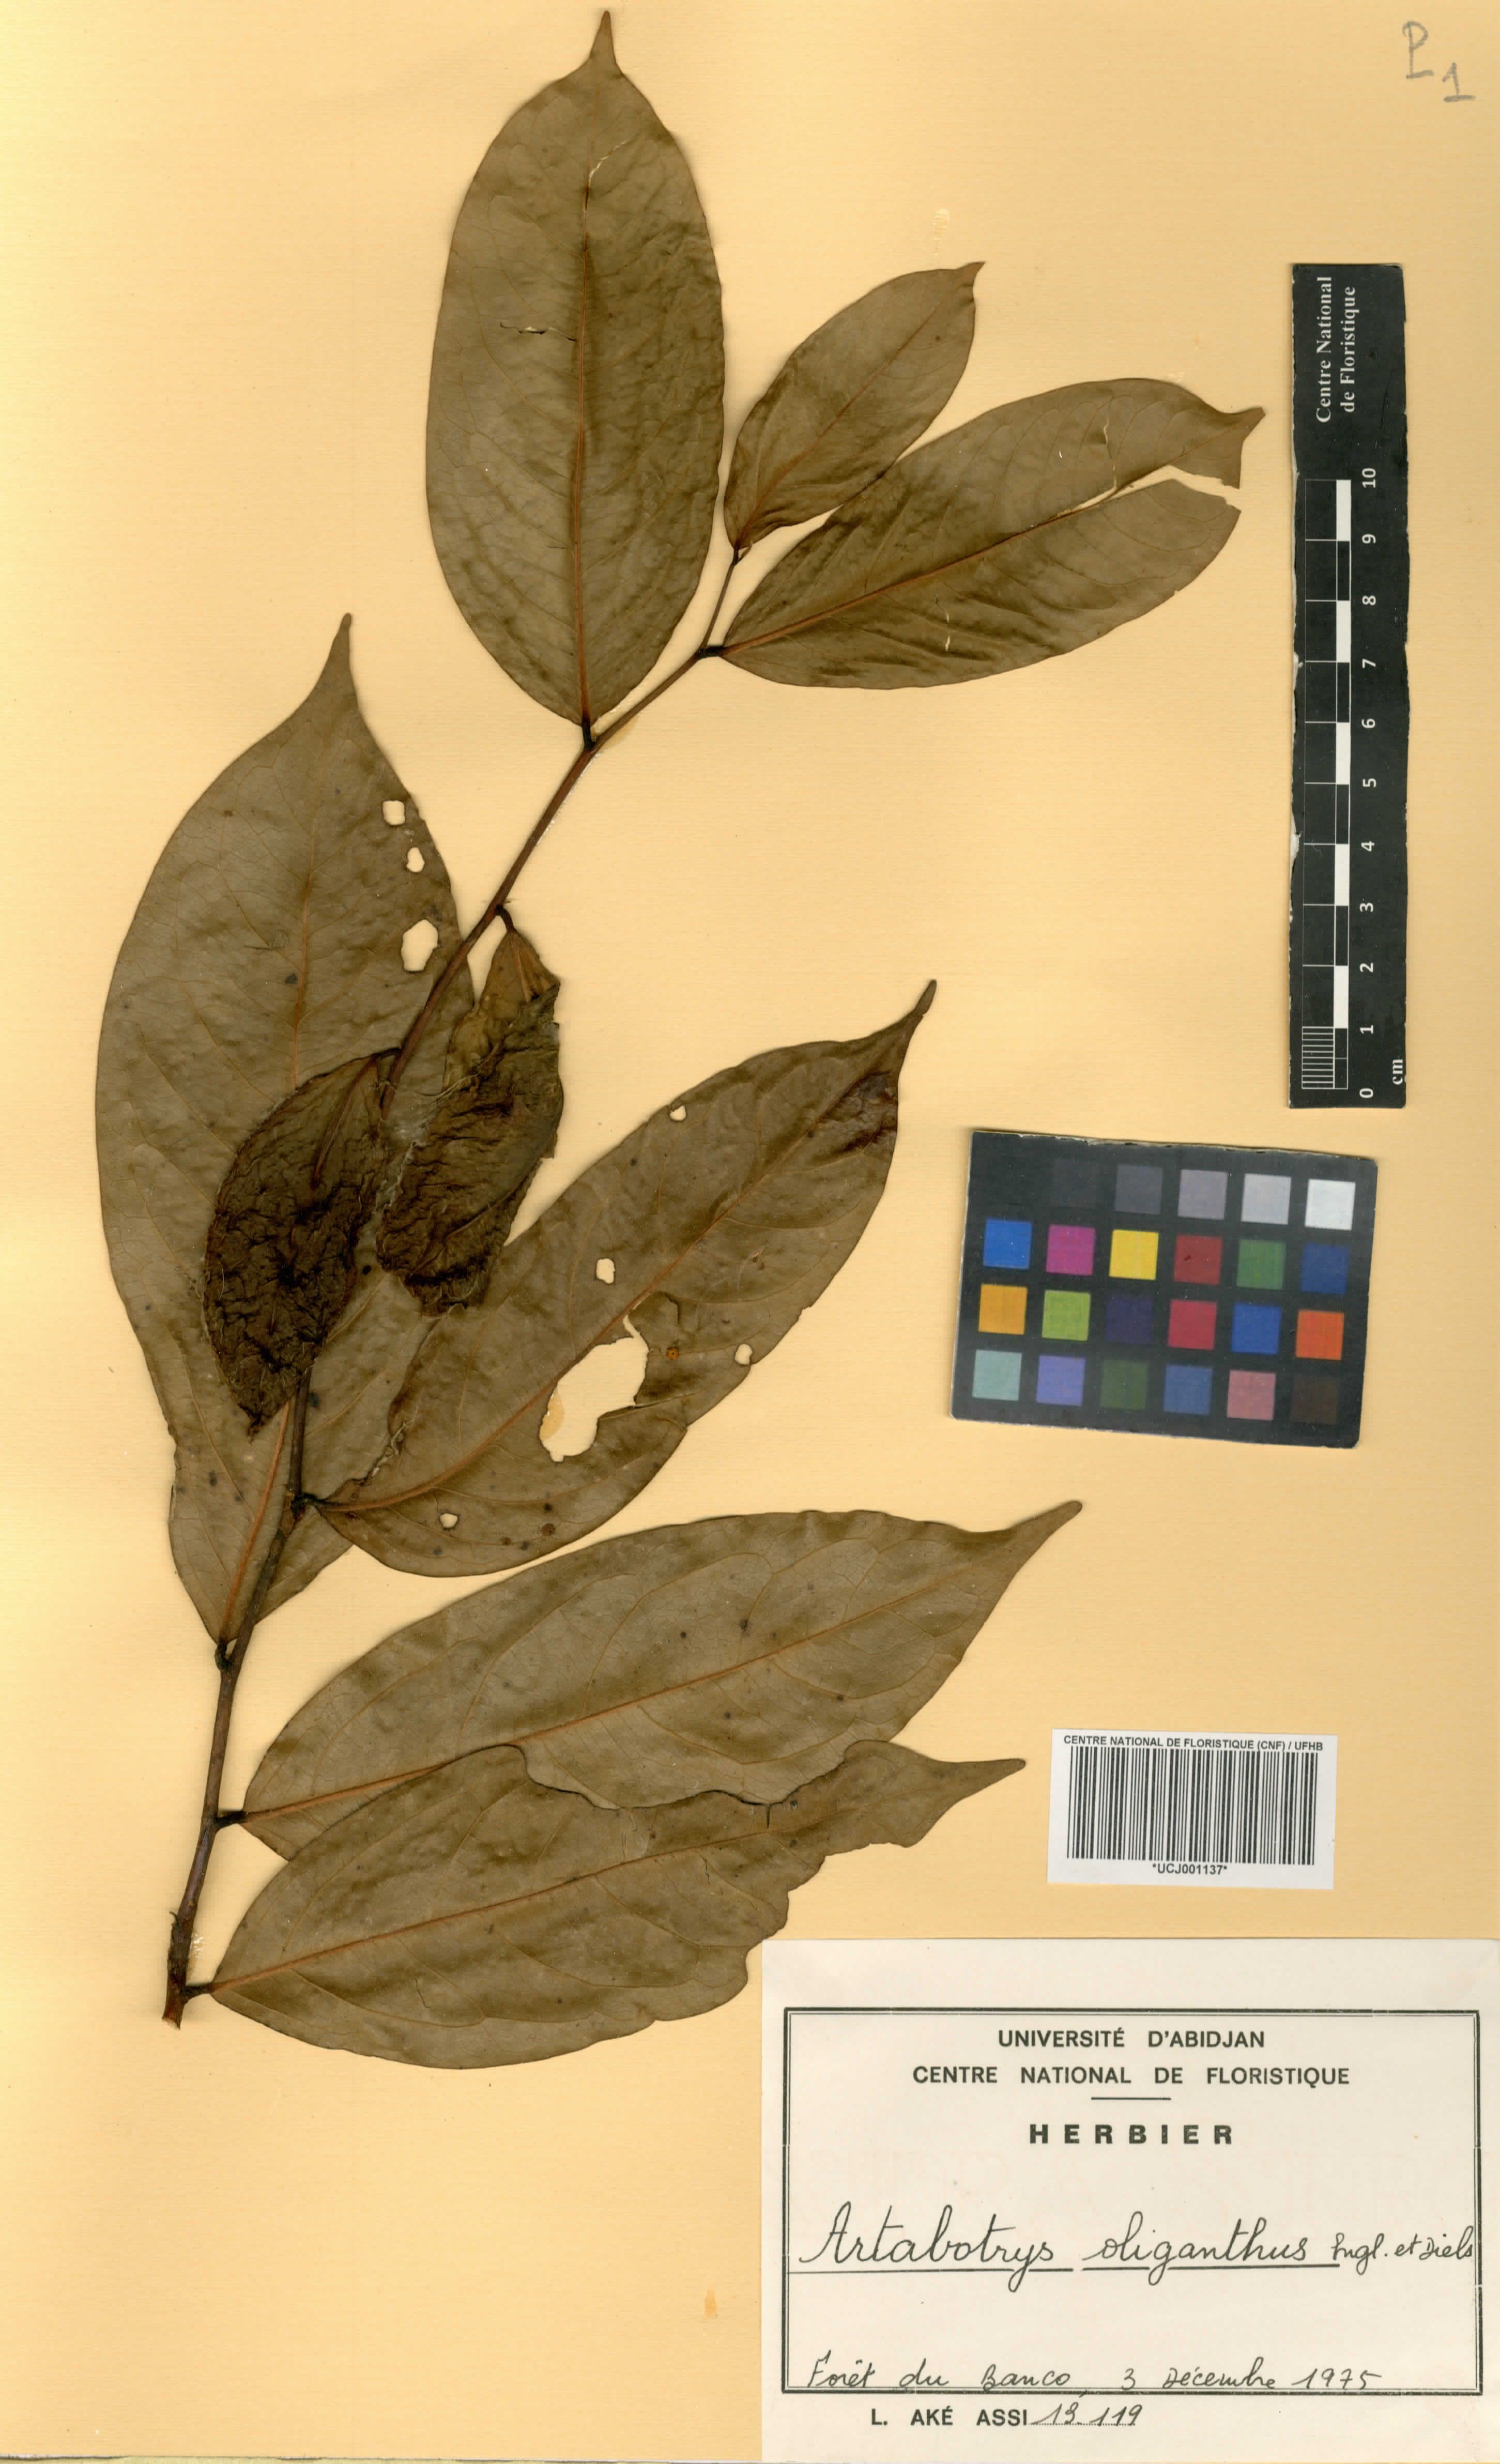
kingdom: Plantae
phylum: Tracheophyta
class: Magnoliopsida
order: Magnoliales
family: Annonaceae
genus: Artabotrys
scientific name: Artabotrys oliganthus
